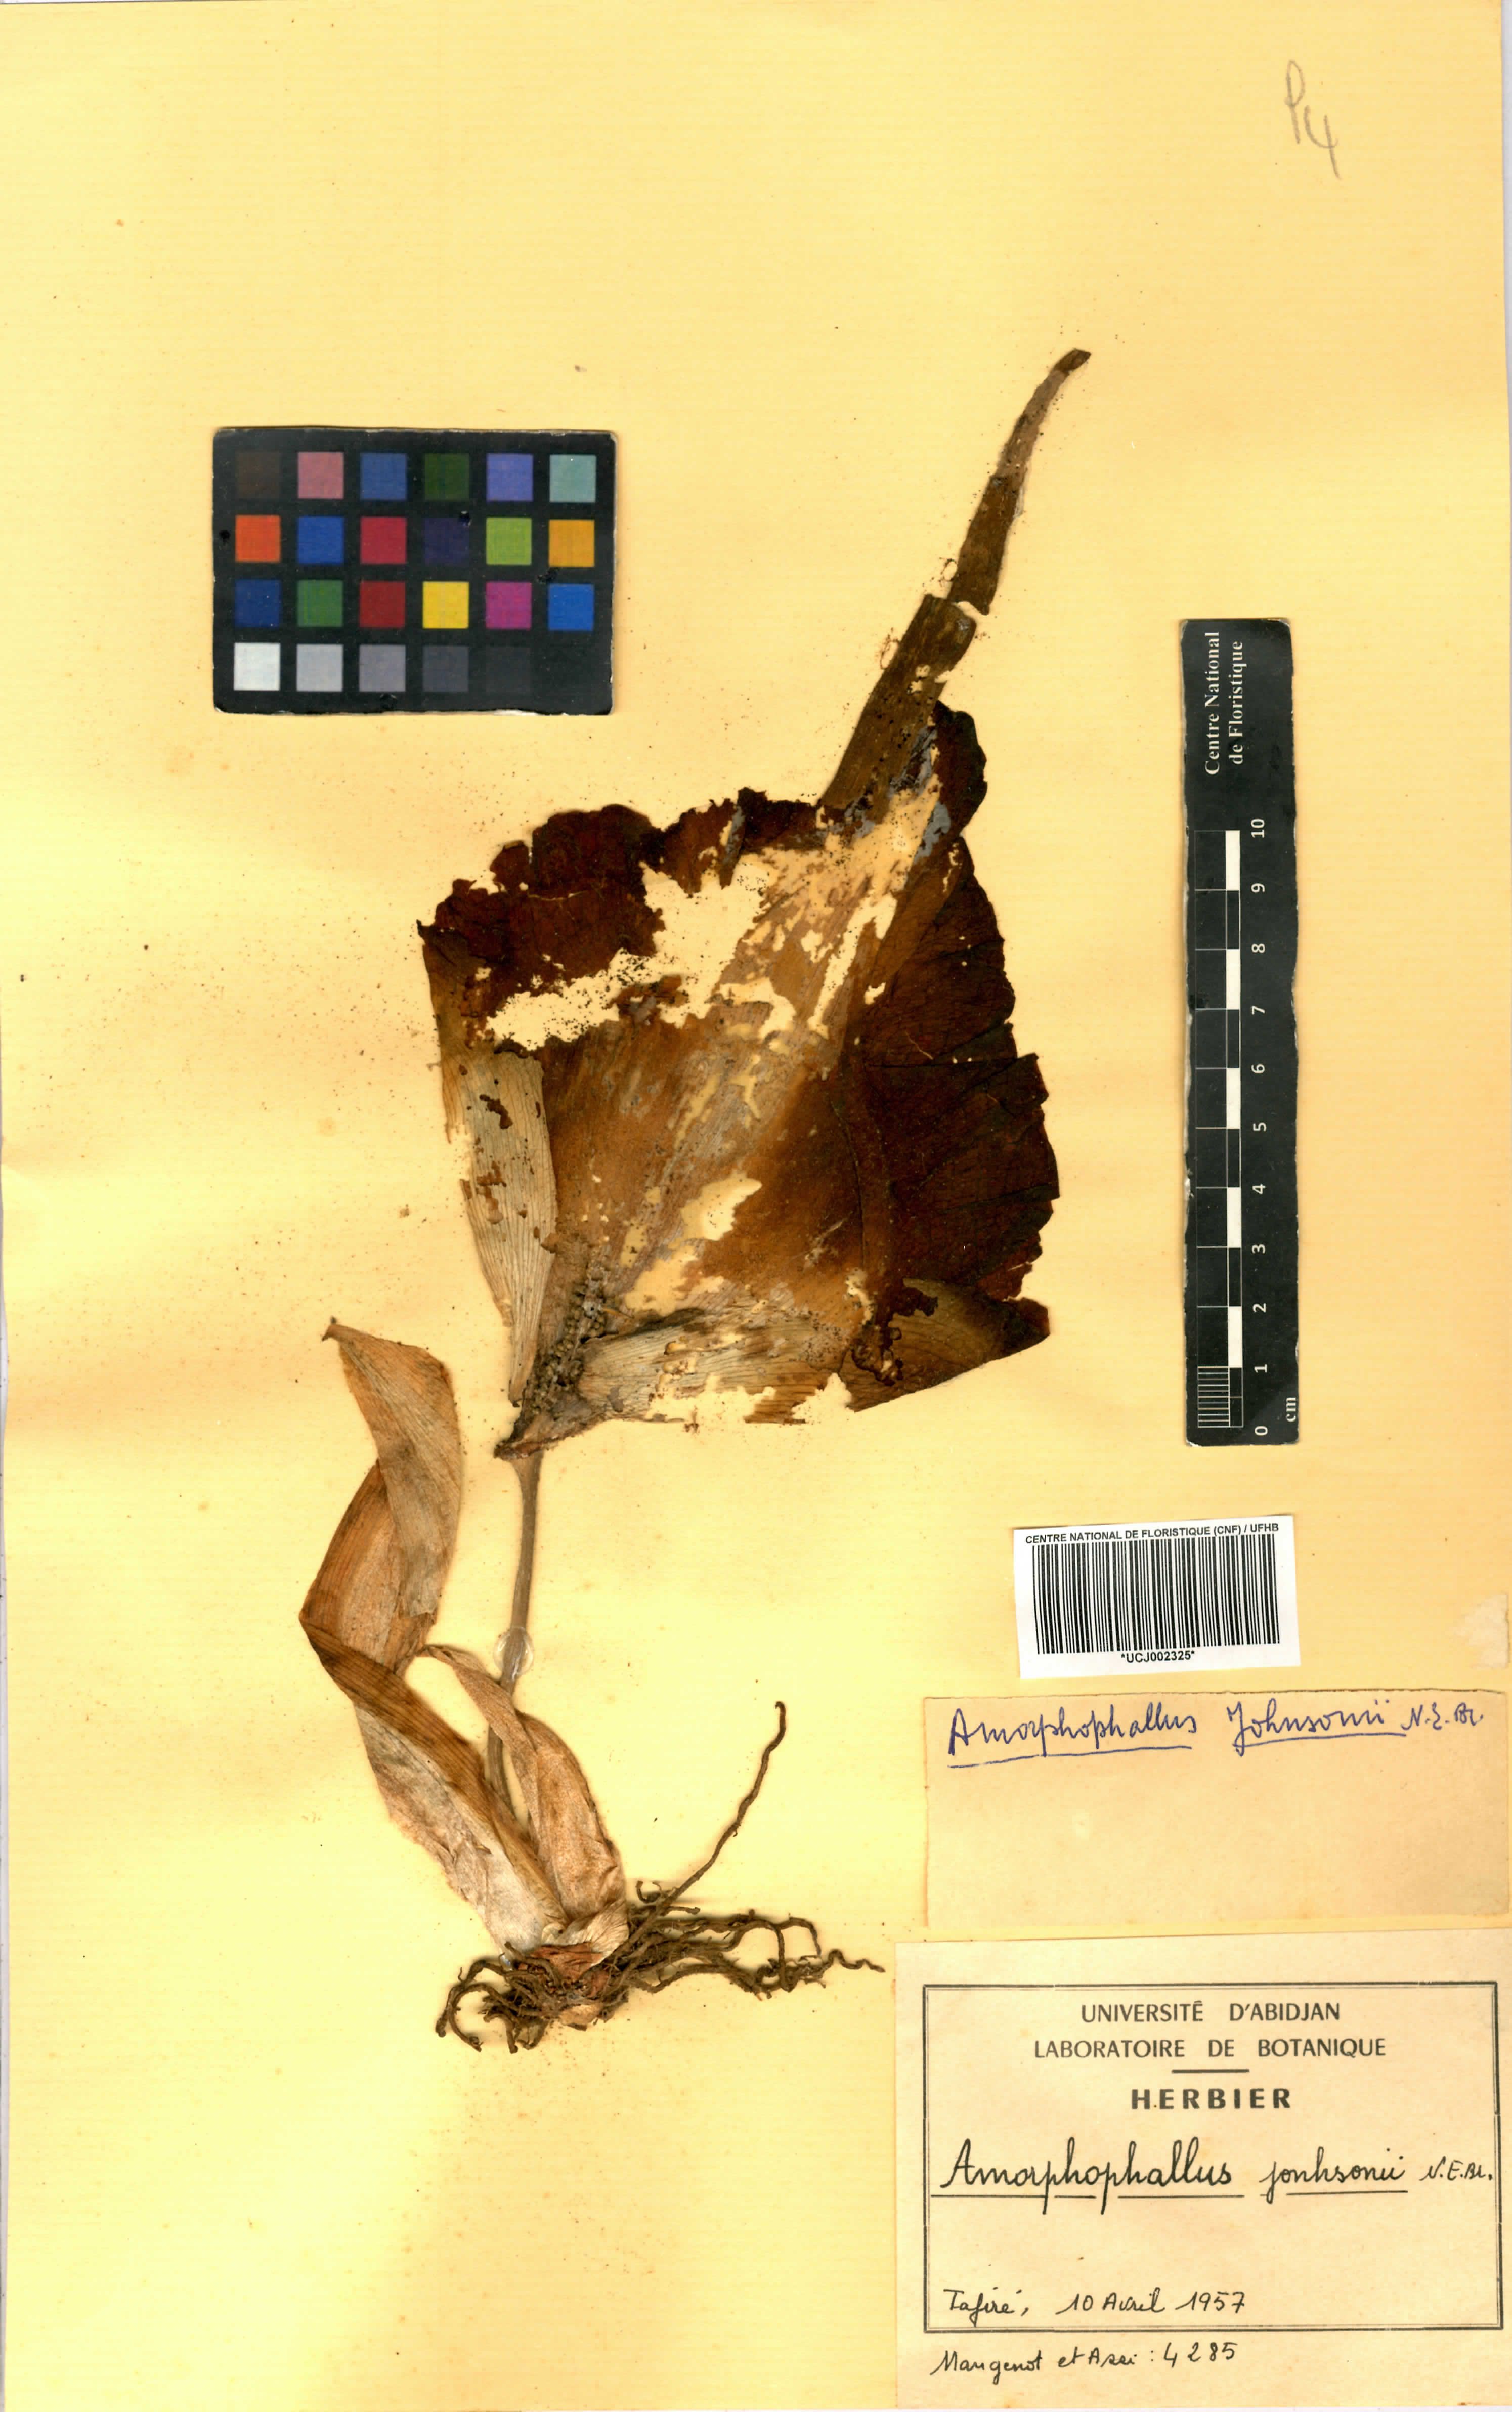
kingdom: Plantae
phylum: Tracheophyta
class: Liliopsida
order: Alismatales
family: Araceae
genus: Amorphophallus
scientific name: Amorphophallus johnsonii
